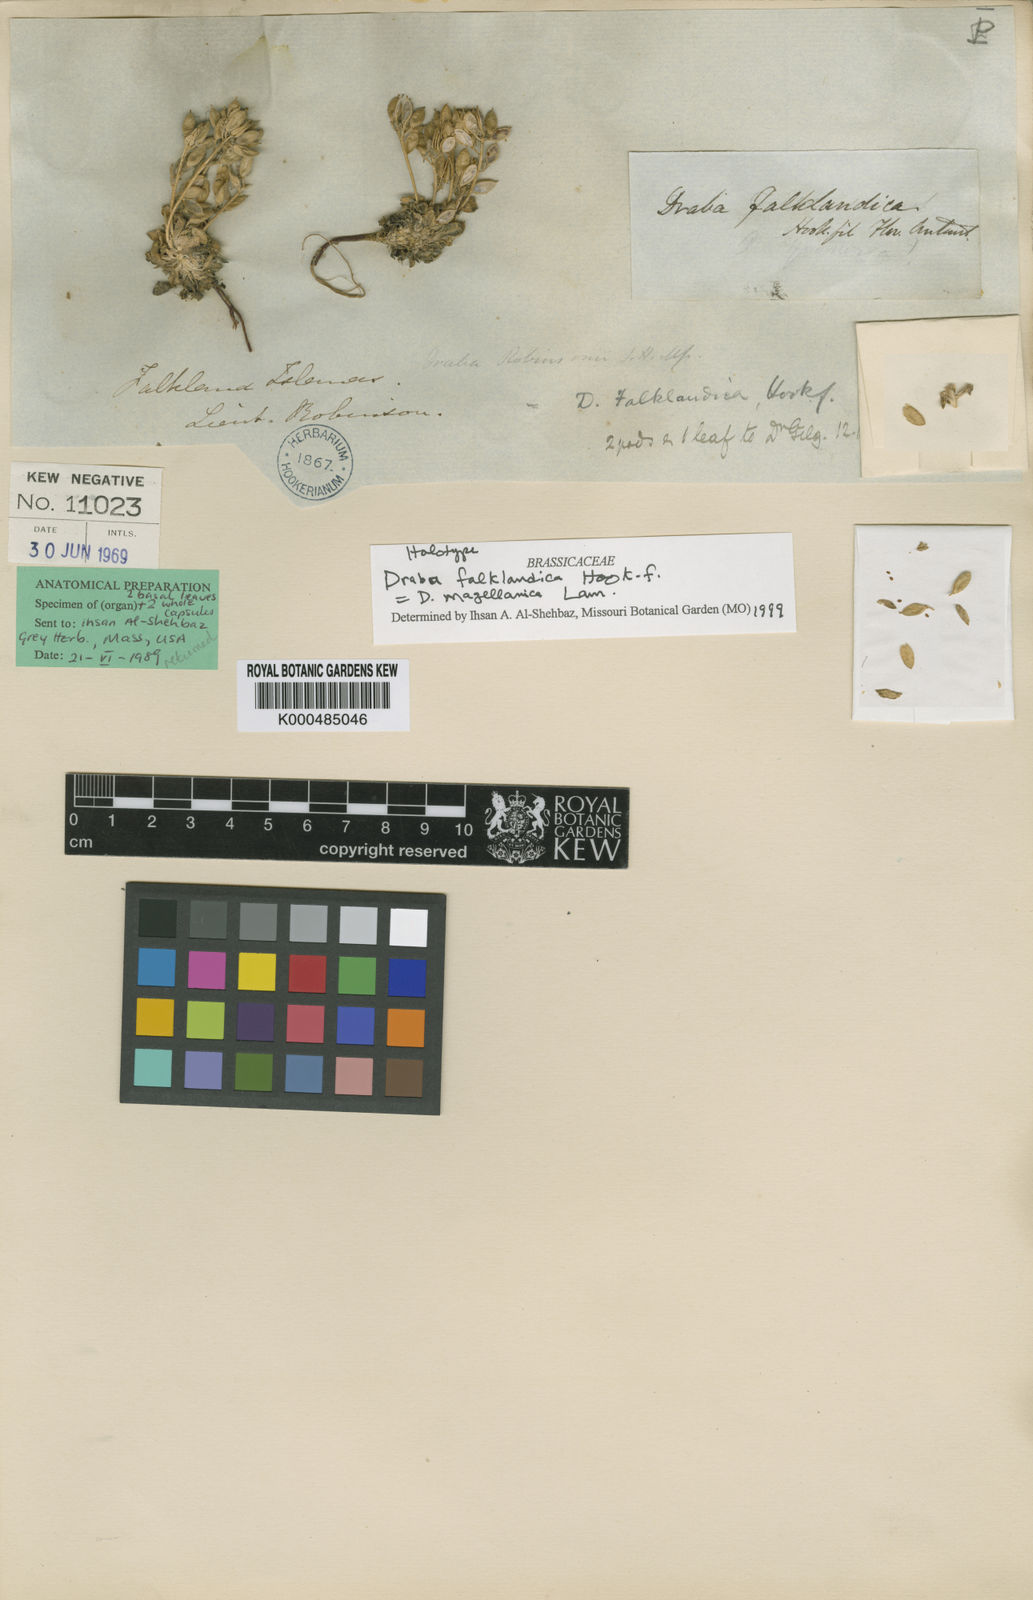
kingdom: Plantae
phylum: Tracheophyta
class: Magnoliopsida
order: Brassicales
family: Brassicaceae
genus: Draba
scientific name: Draba magellanica
